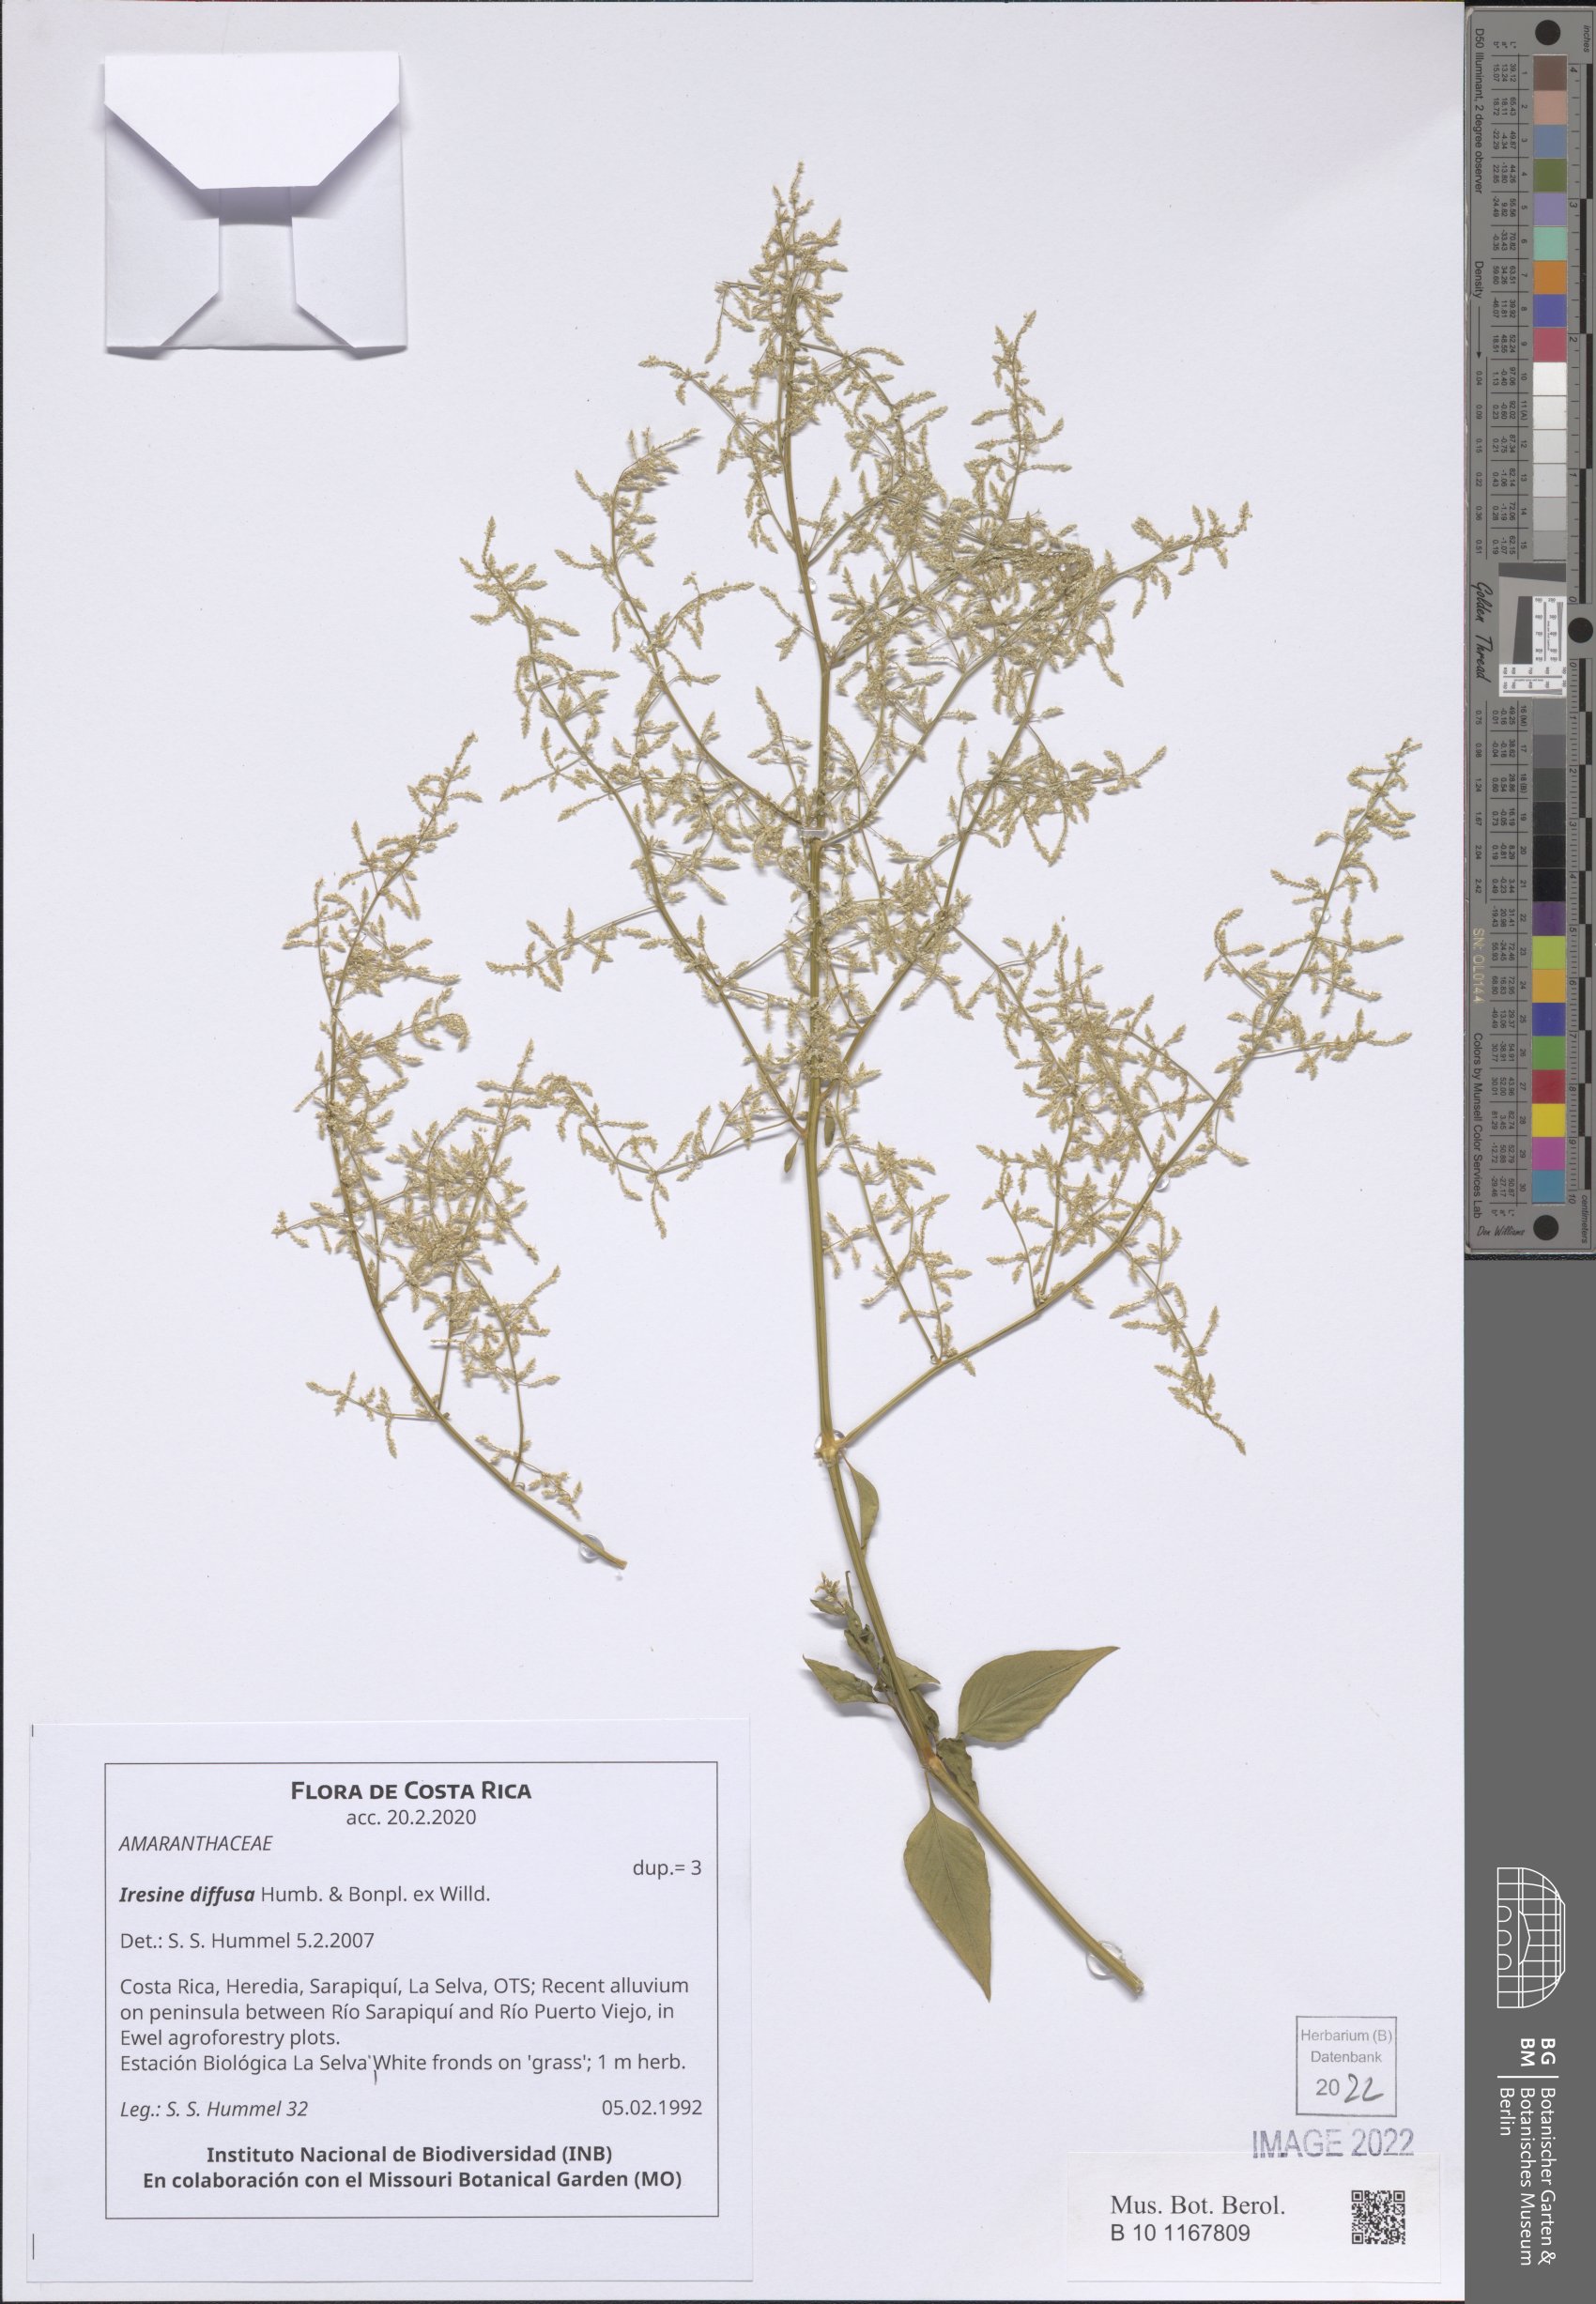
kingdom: Plantae
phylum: Tracheophyta
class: Magnoliopsida
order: Caryophyllales
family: Amaranthaceae
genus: Iresine
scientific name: Iresine diffusa
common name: Juba's-bush
